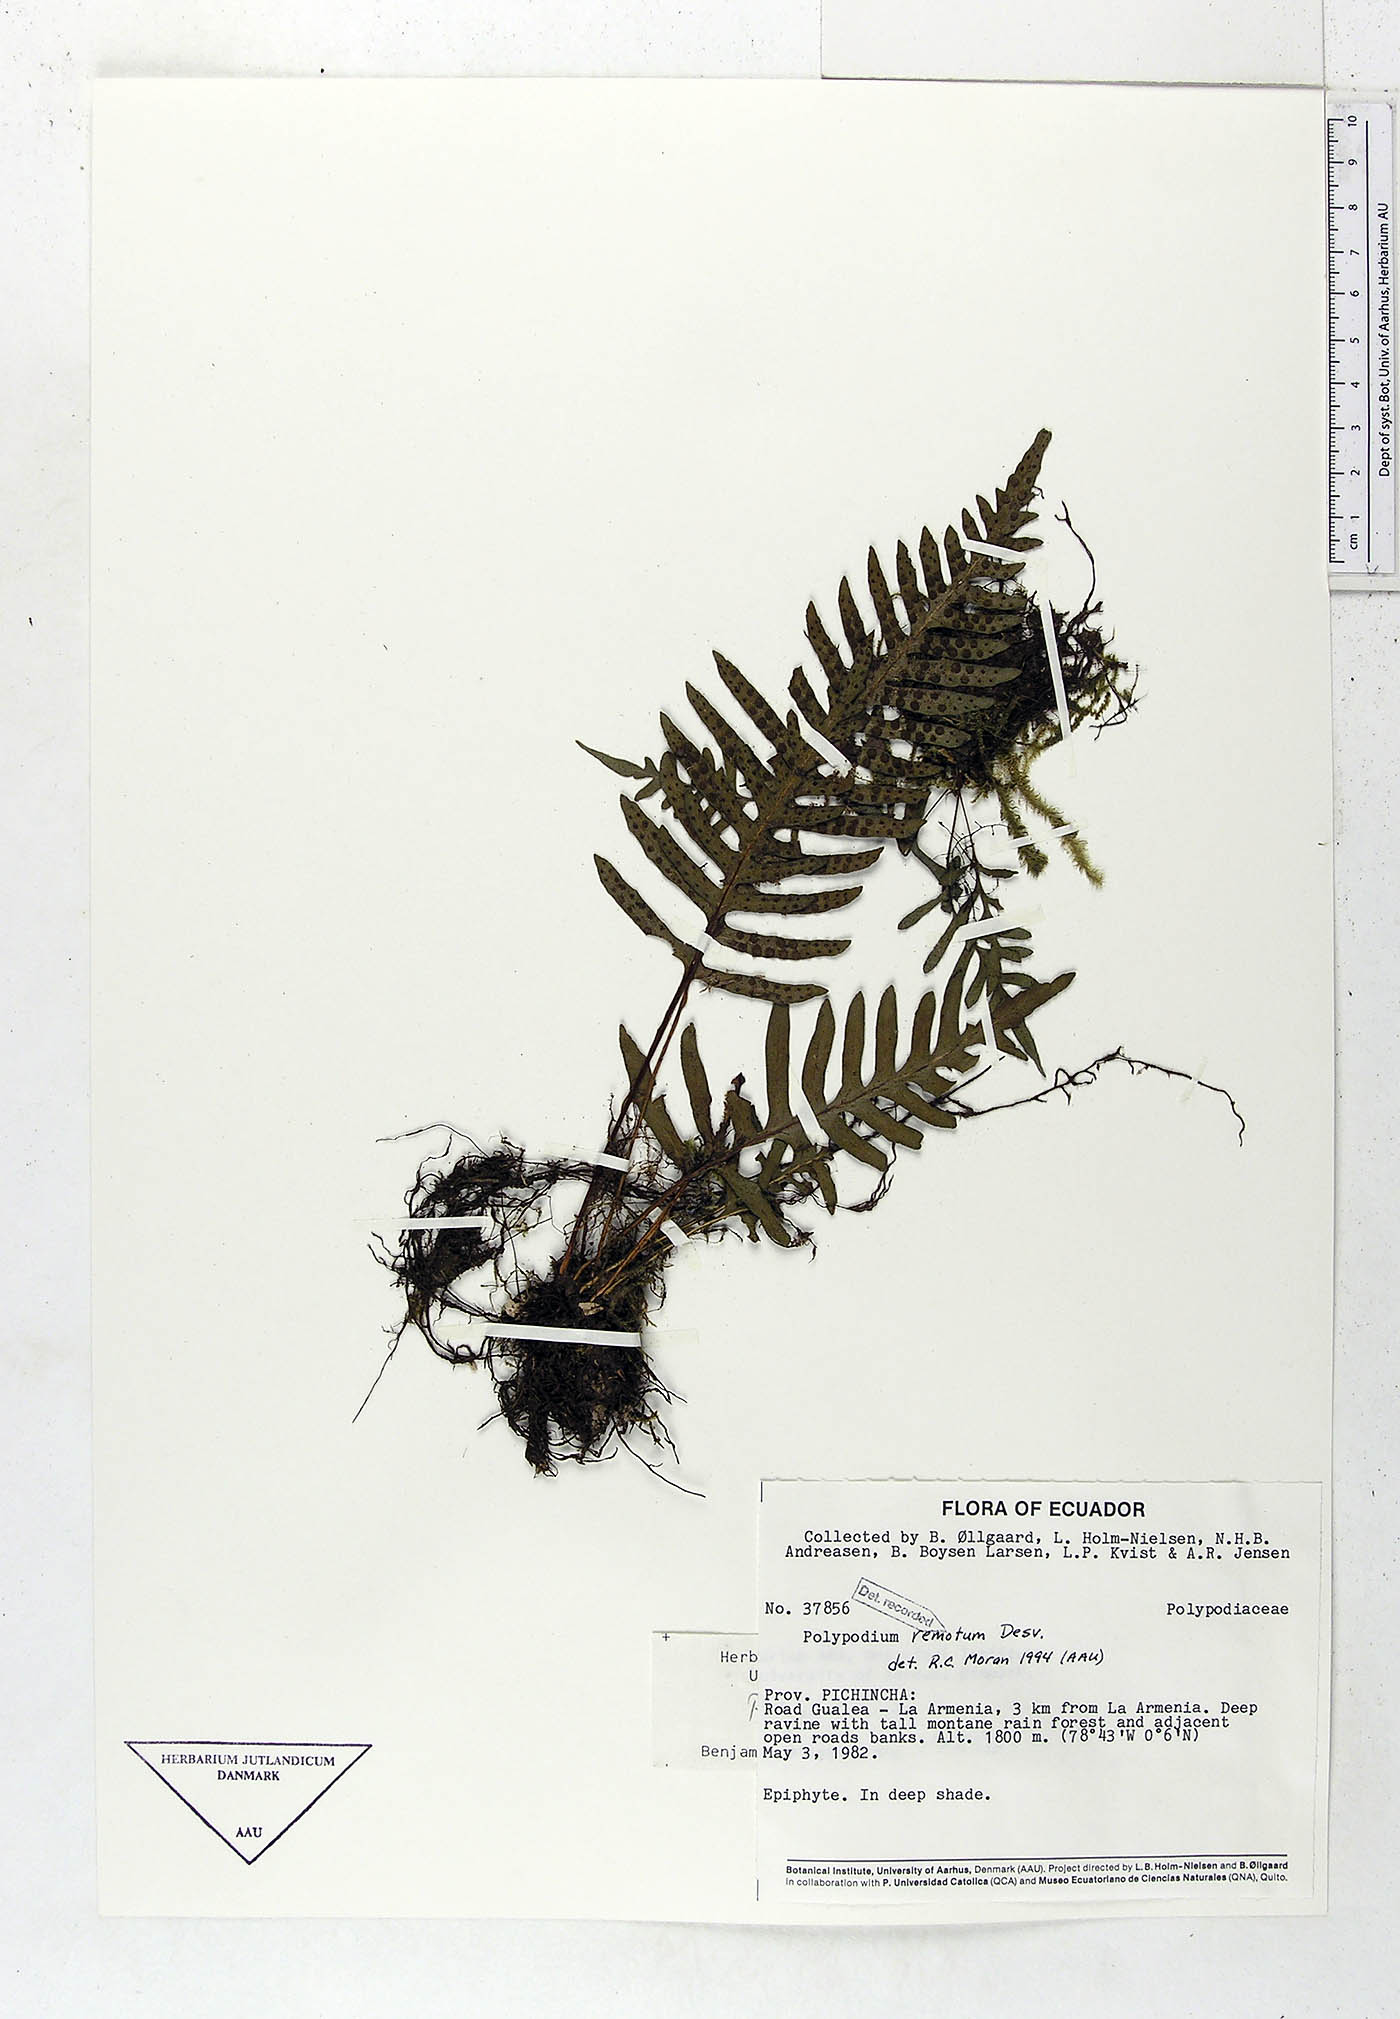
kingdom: Plantae
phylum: Tracheophyta
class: Polypodiopsida
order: Polypodiales
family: Polypodiaceae
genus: Pleopeltis
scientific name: Pleopeltis remota
